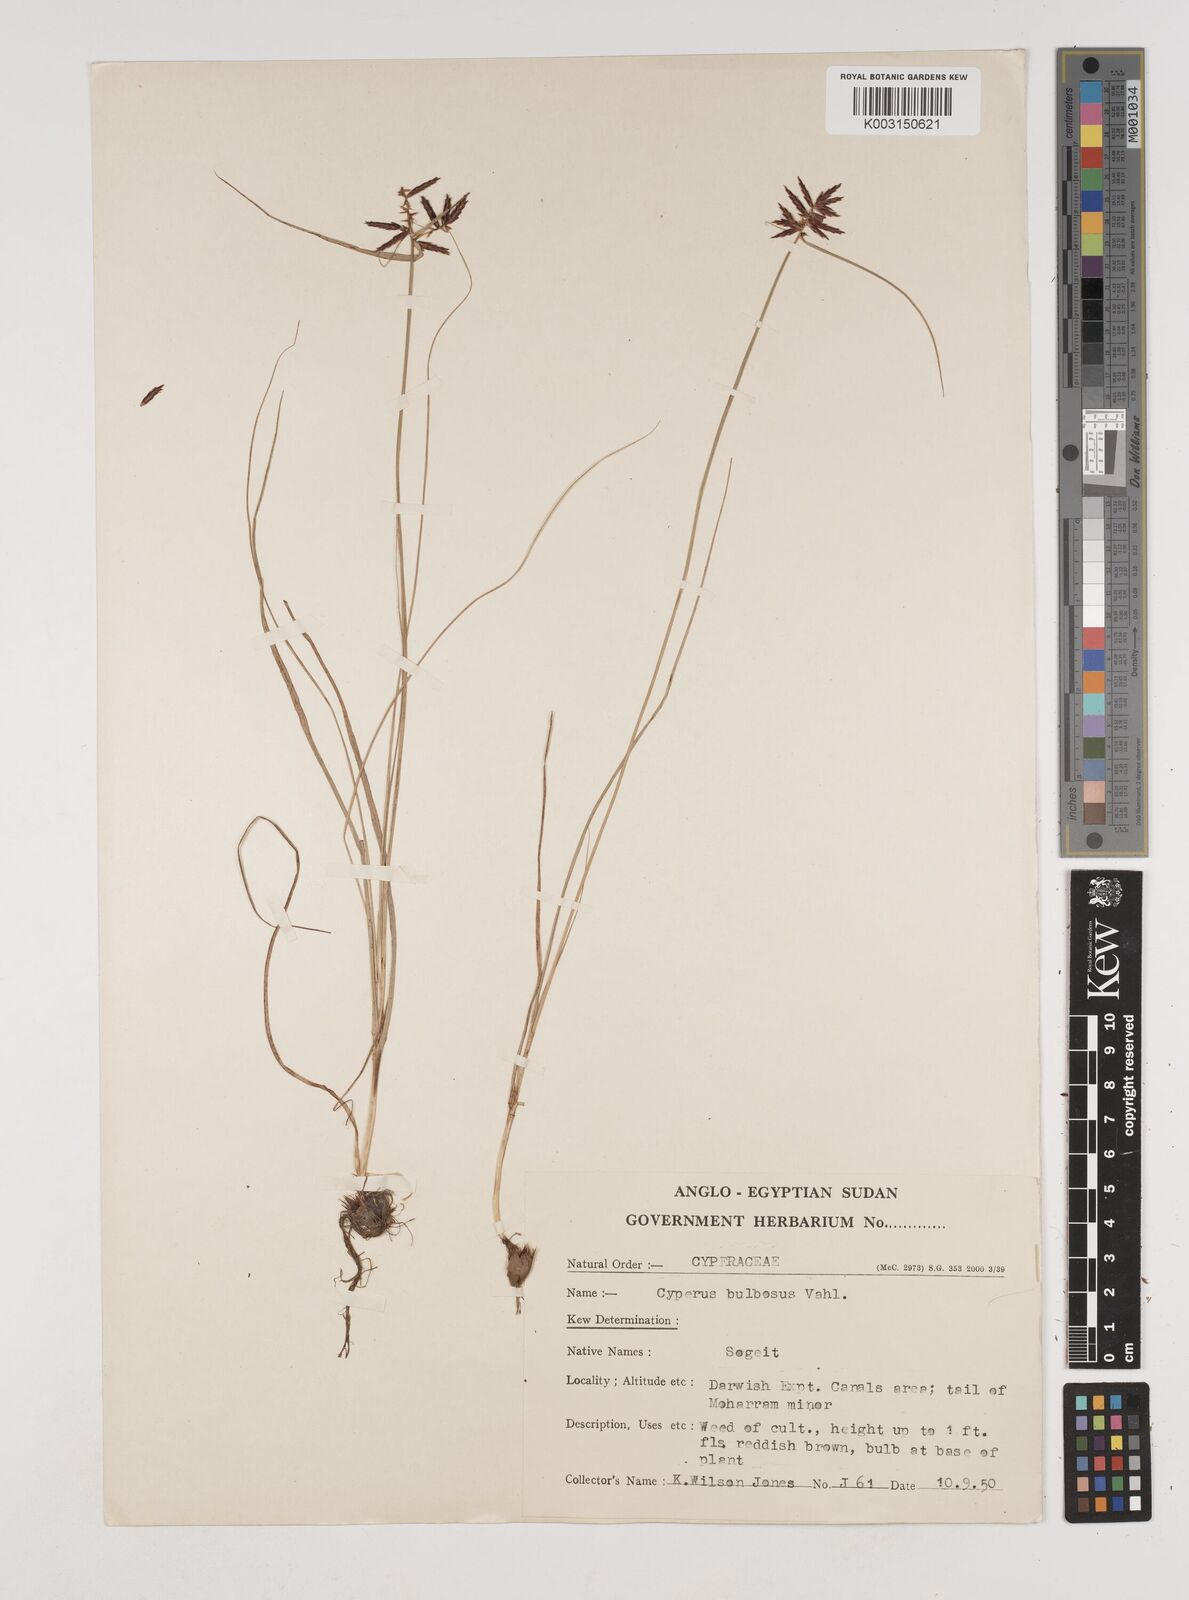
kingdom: Plantae
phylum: Tracheophyta
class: Liliopsida
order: Poales
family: Cyperaceae
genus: Cyperus
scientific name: Cyperus bulbosus
